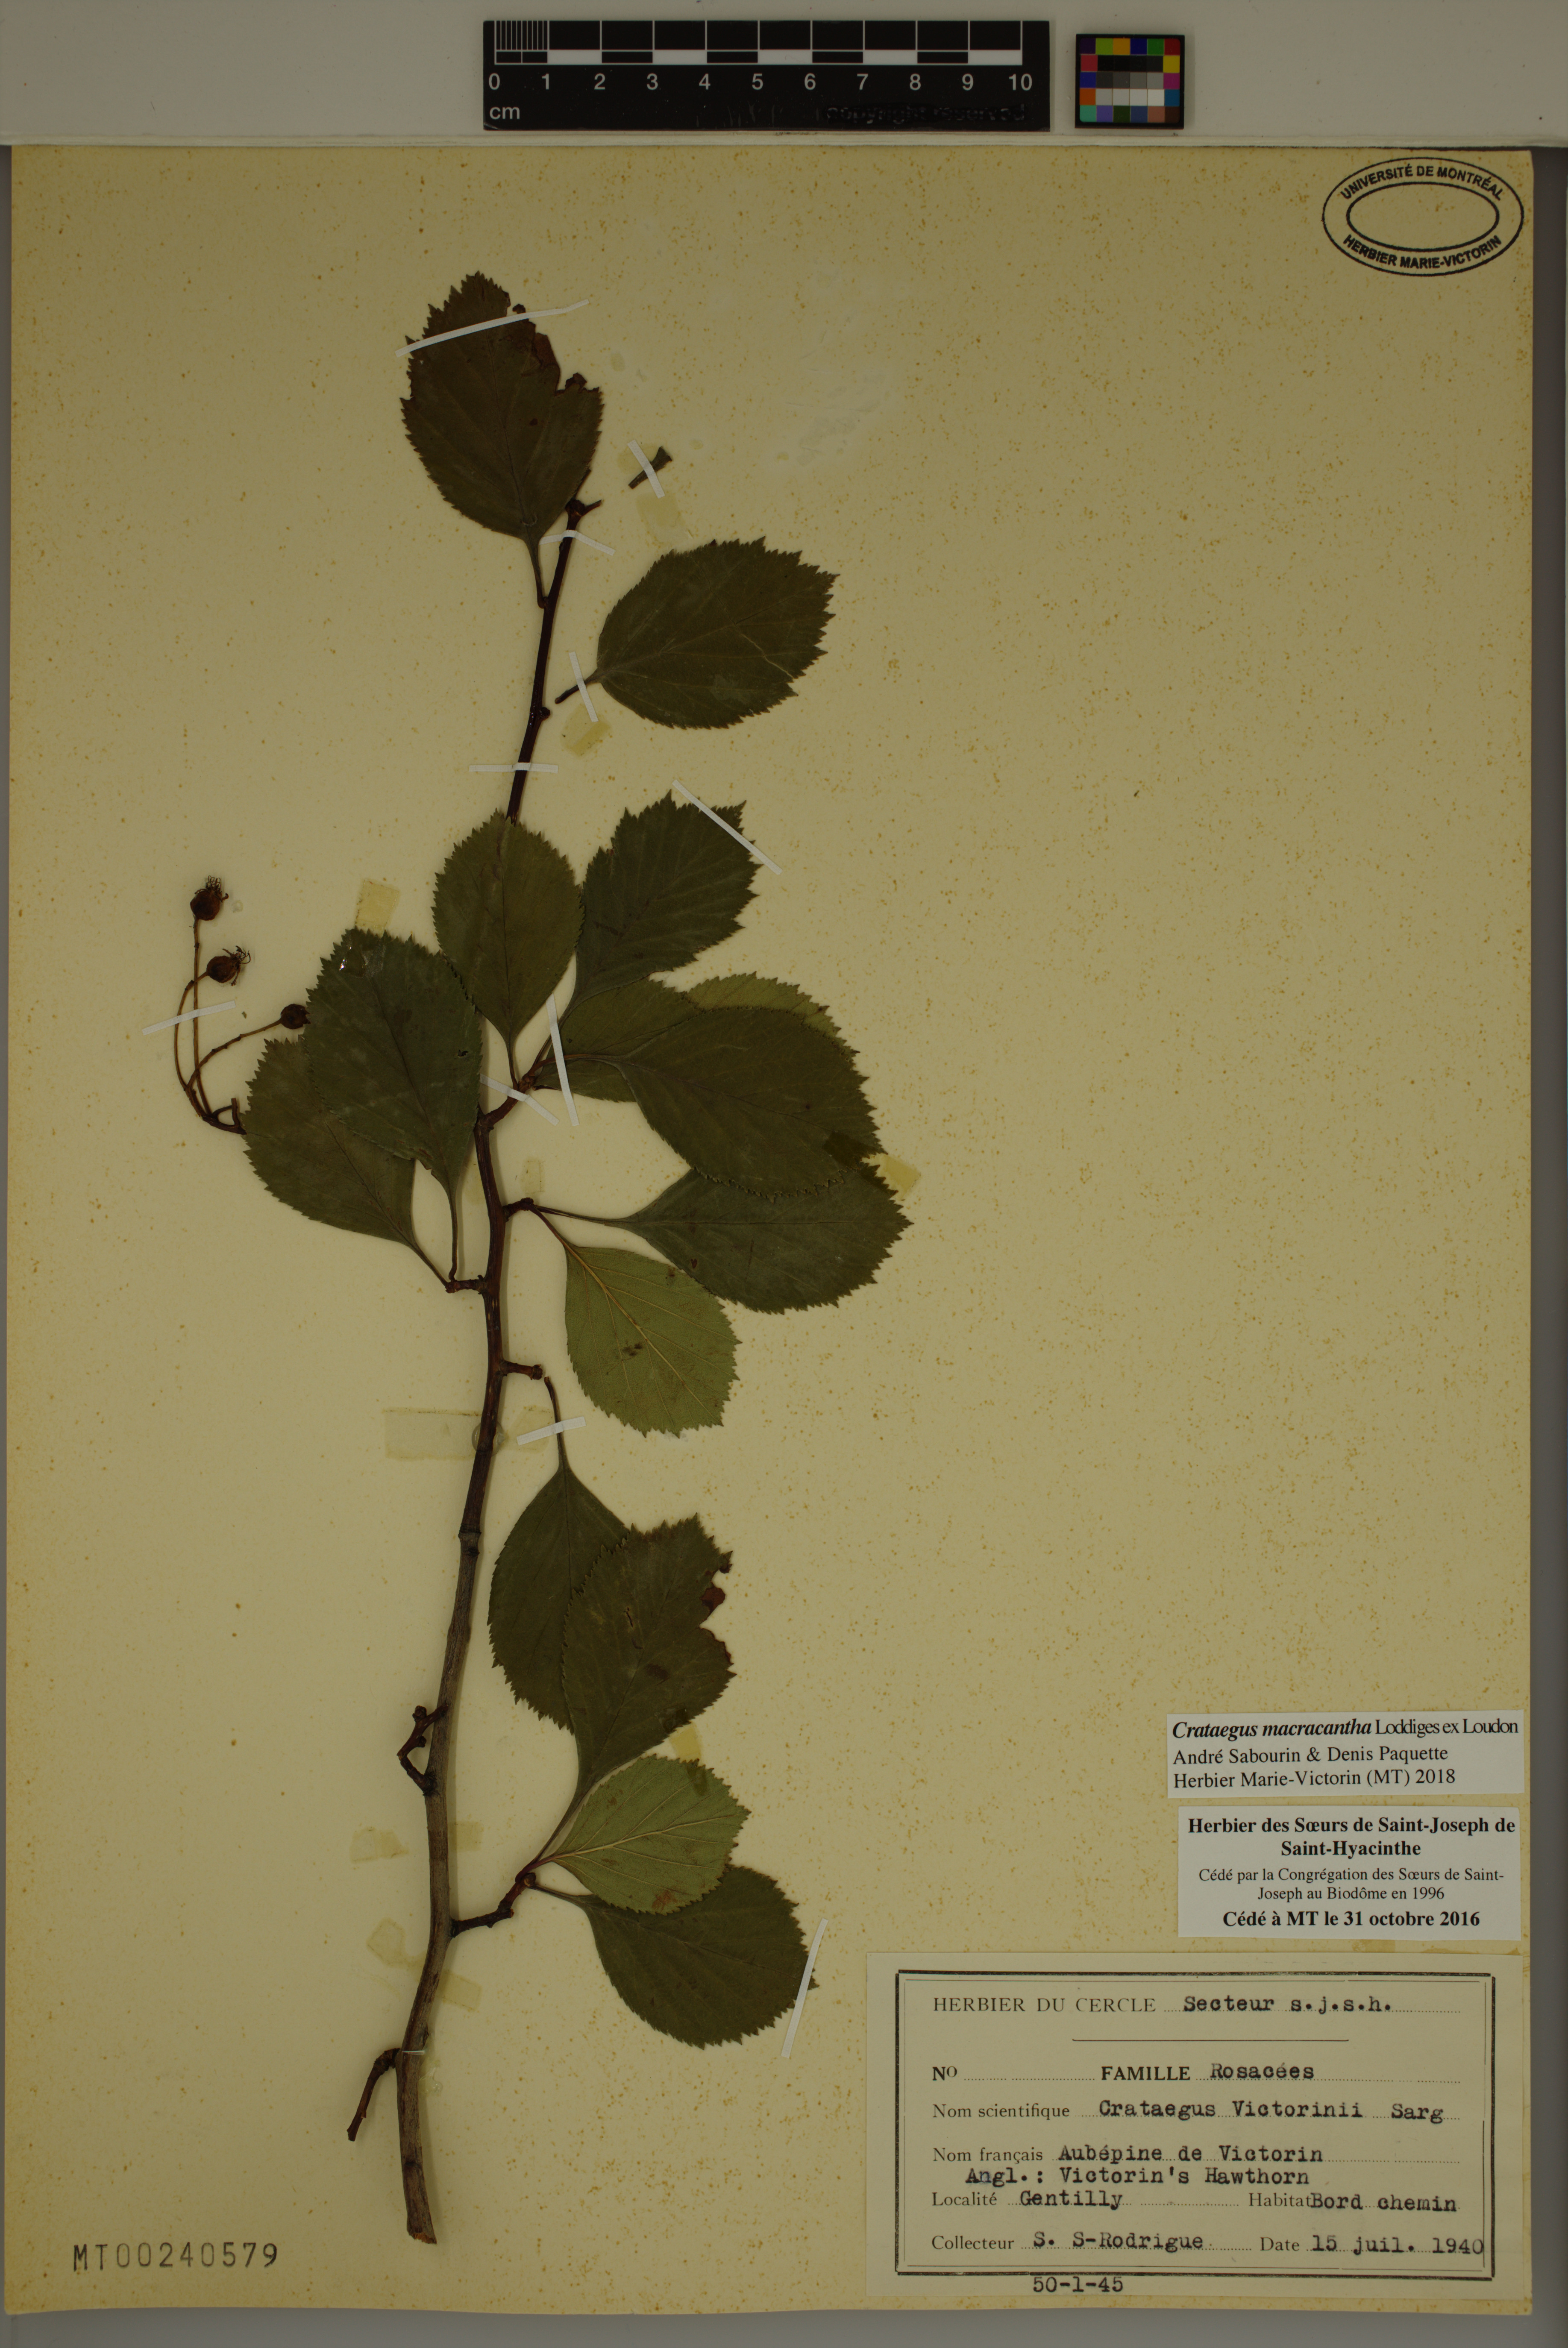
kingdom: Plantae
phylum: Tracheophyta
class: Magnoliopsida
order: Rosales
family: Rosaceae
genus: Crataegus
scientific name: Crataegus macracantha
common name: Large-thorn hawthorn
